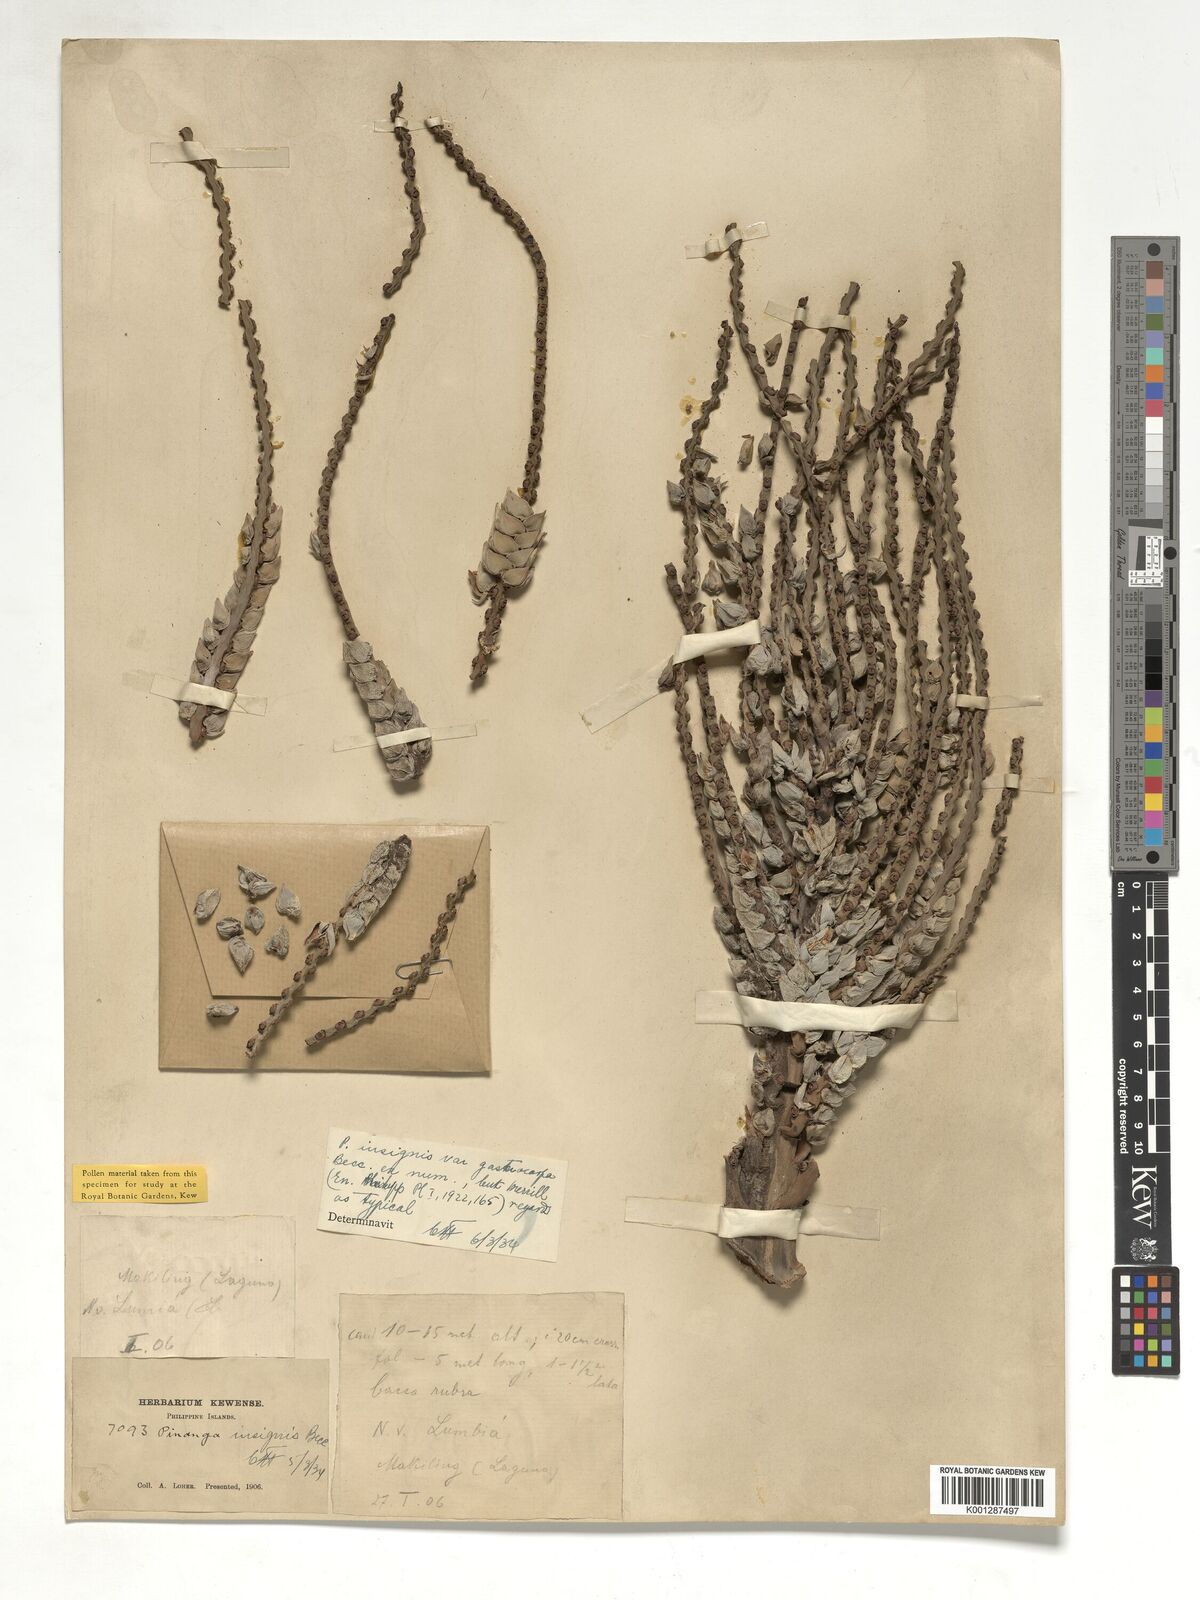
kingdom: Plantae
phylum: Tracheophyta
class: Liliopsida
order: Arecales
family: Arecaceae
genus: Pinanga
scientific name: Pinanga insignis
